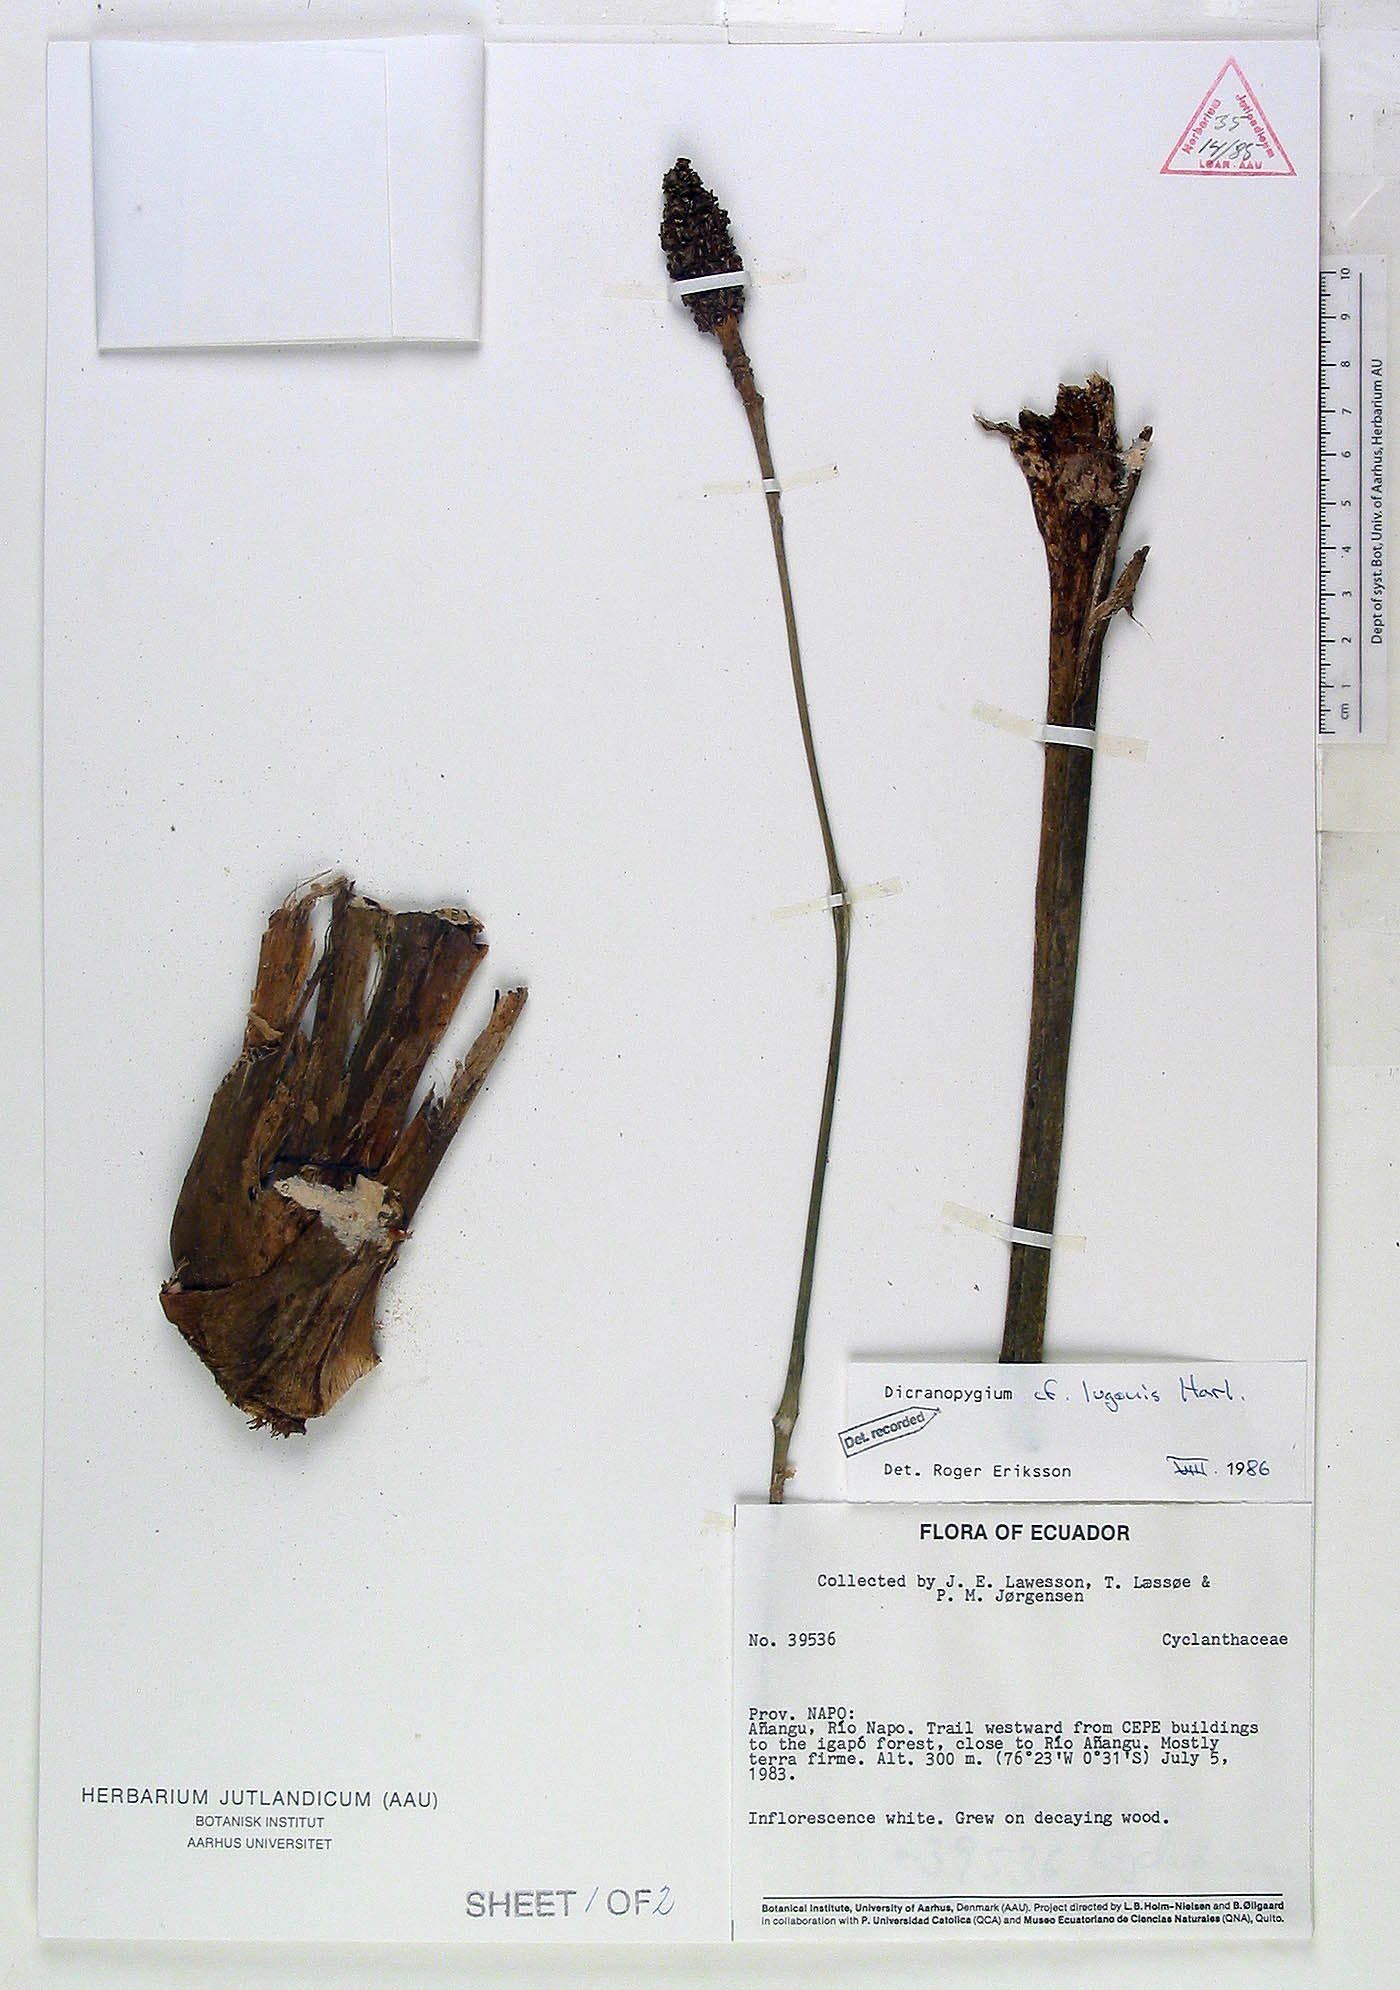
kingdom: Plantae
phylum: Tracheophyta
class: Liliopsida
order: Pandanales
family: Cyclanthaceae
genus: Dicranopygium
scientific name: Dicranopygium lugonis
